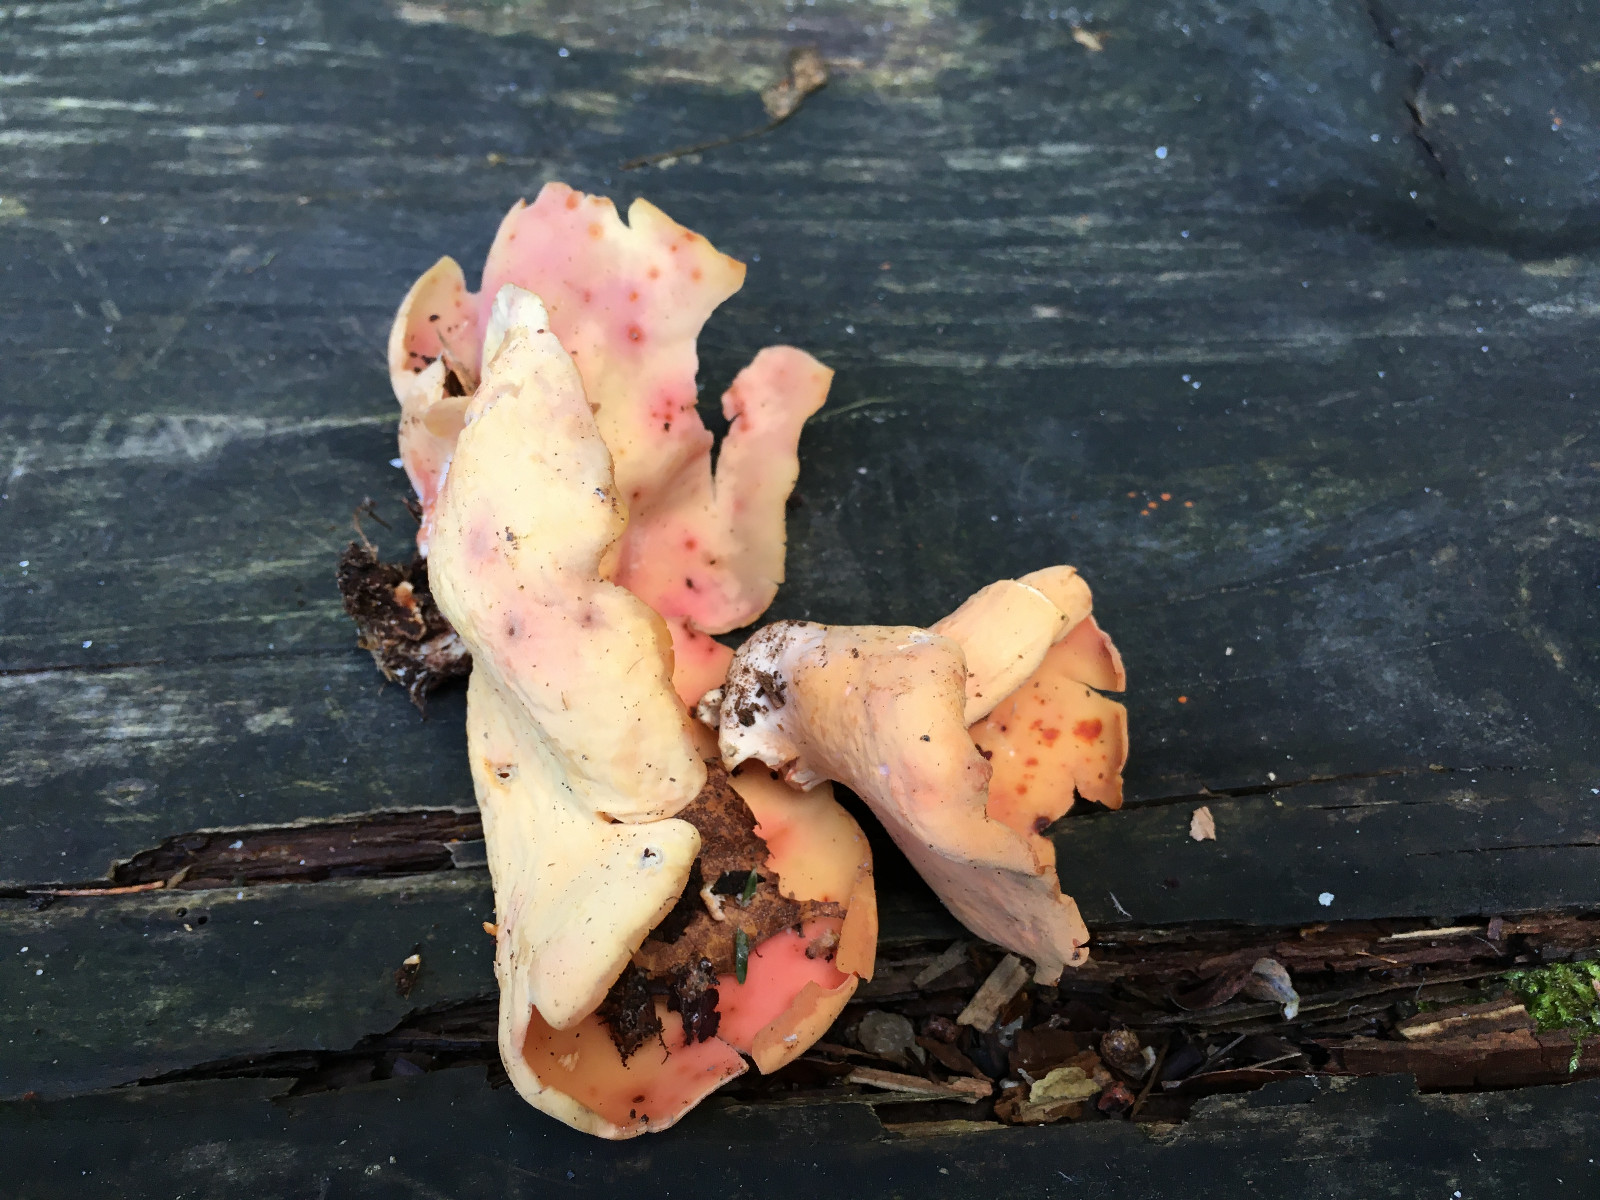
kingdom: Fungi
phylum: Ascomycota
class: Pezizomycetes
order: Pezizales
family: Otideaceae
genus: Otidea
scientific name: Otidea onotica
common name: æsel-ørebæger
